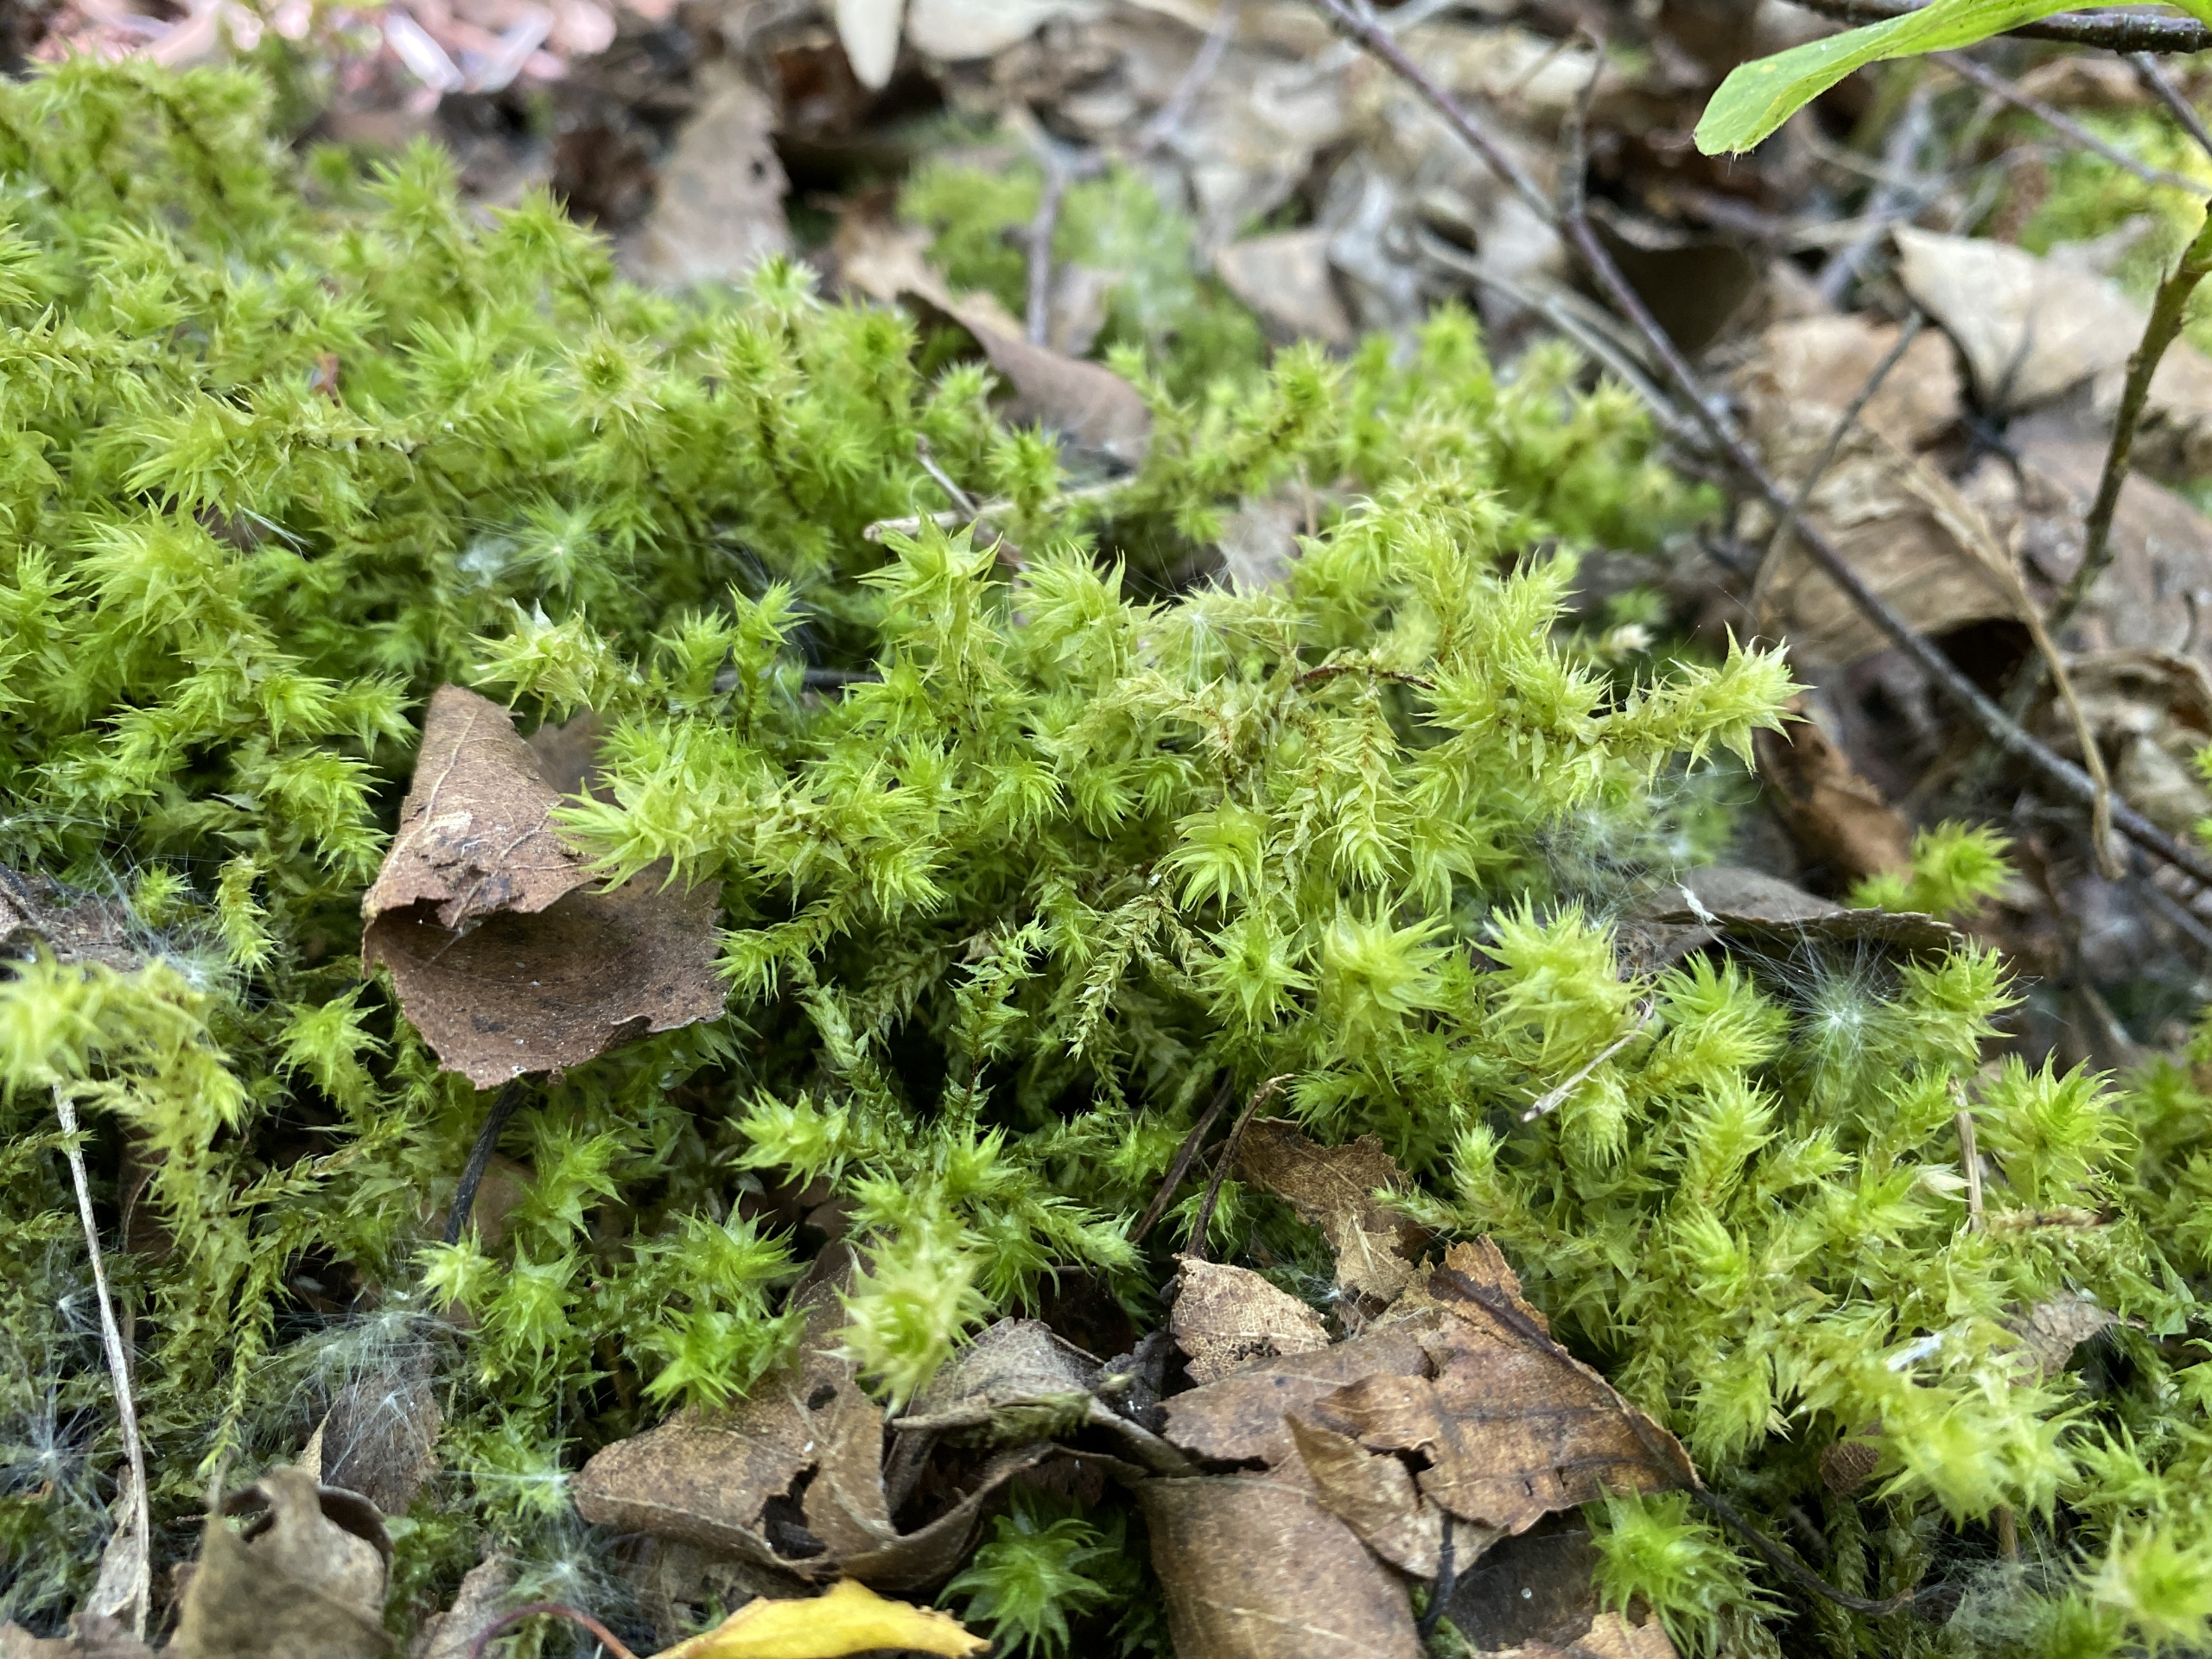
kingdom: Plantae
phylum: Bryophyta
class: Bryopsida
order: Hypnales
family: Hylocomiaceae
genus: Hylocomiadelphus
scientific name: Hylocomiadelphus triquetrus
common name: Stor kransemos
